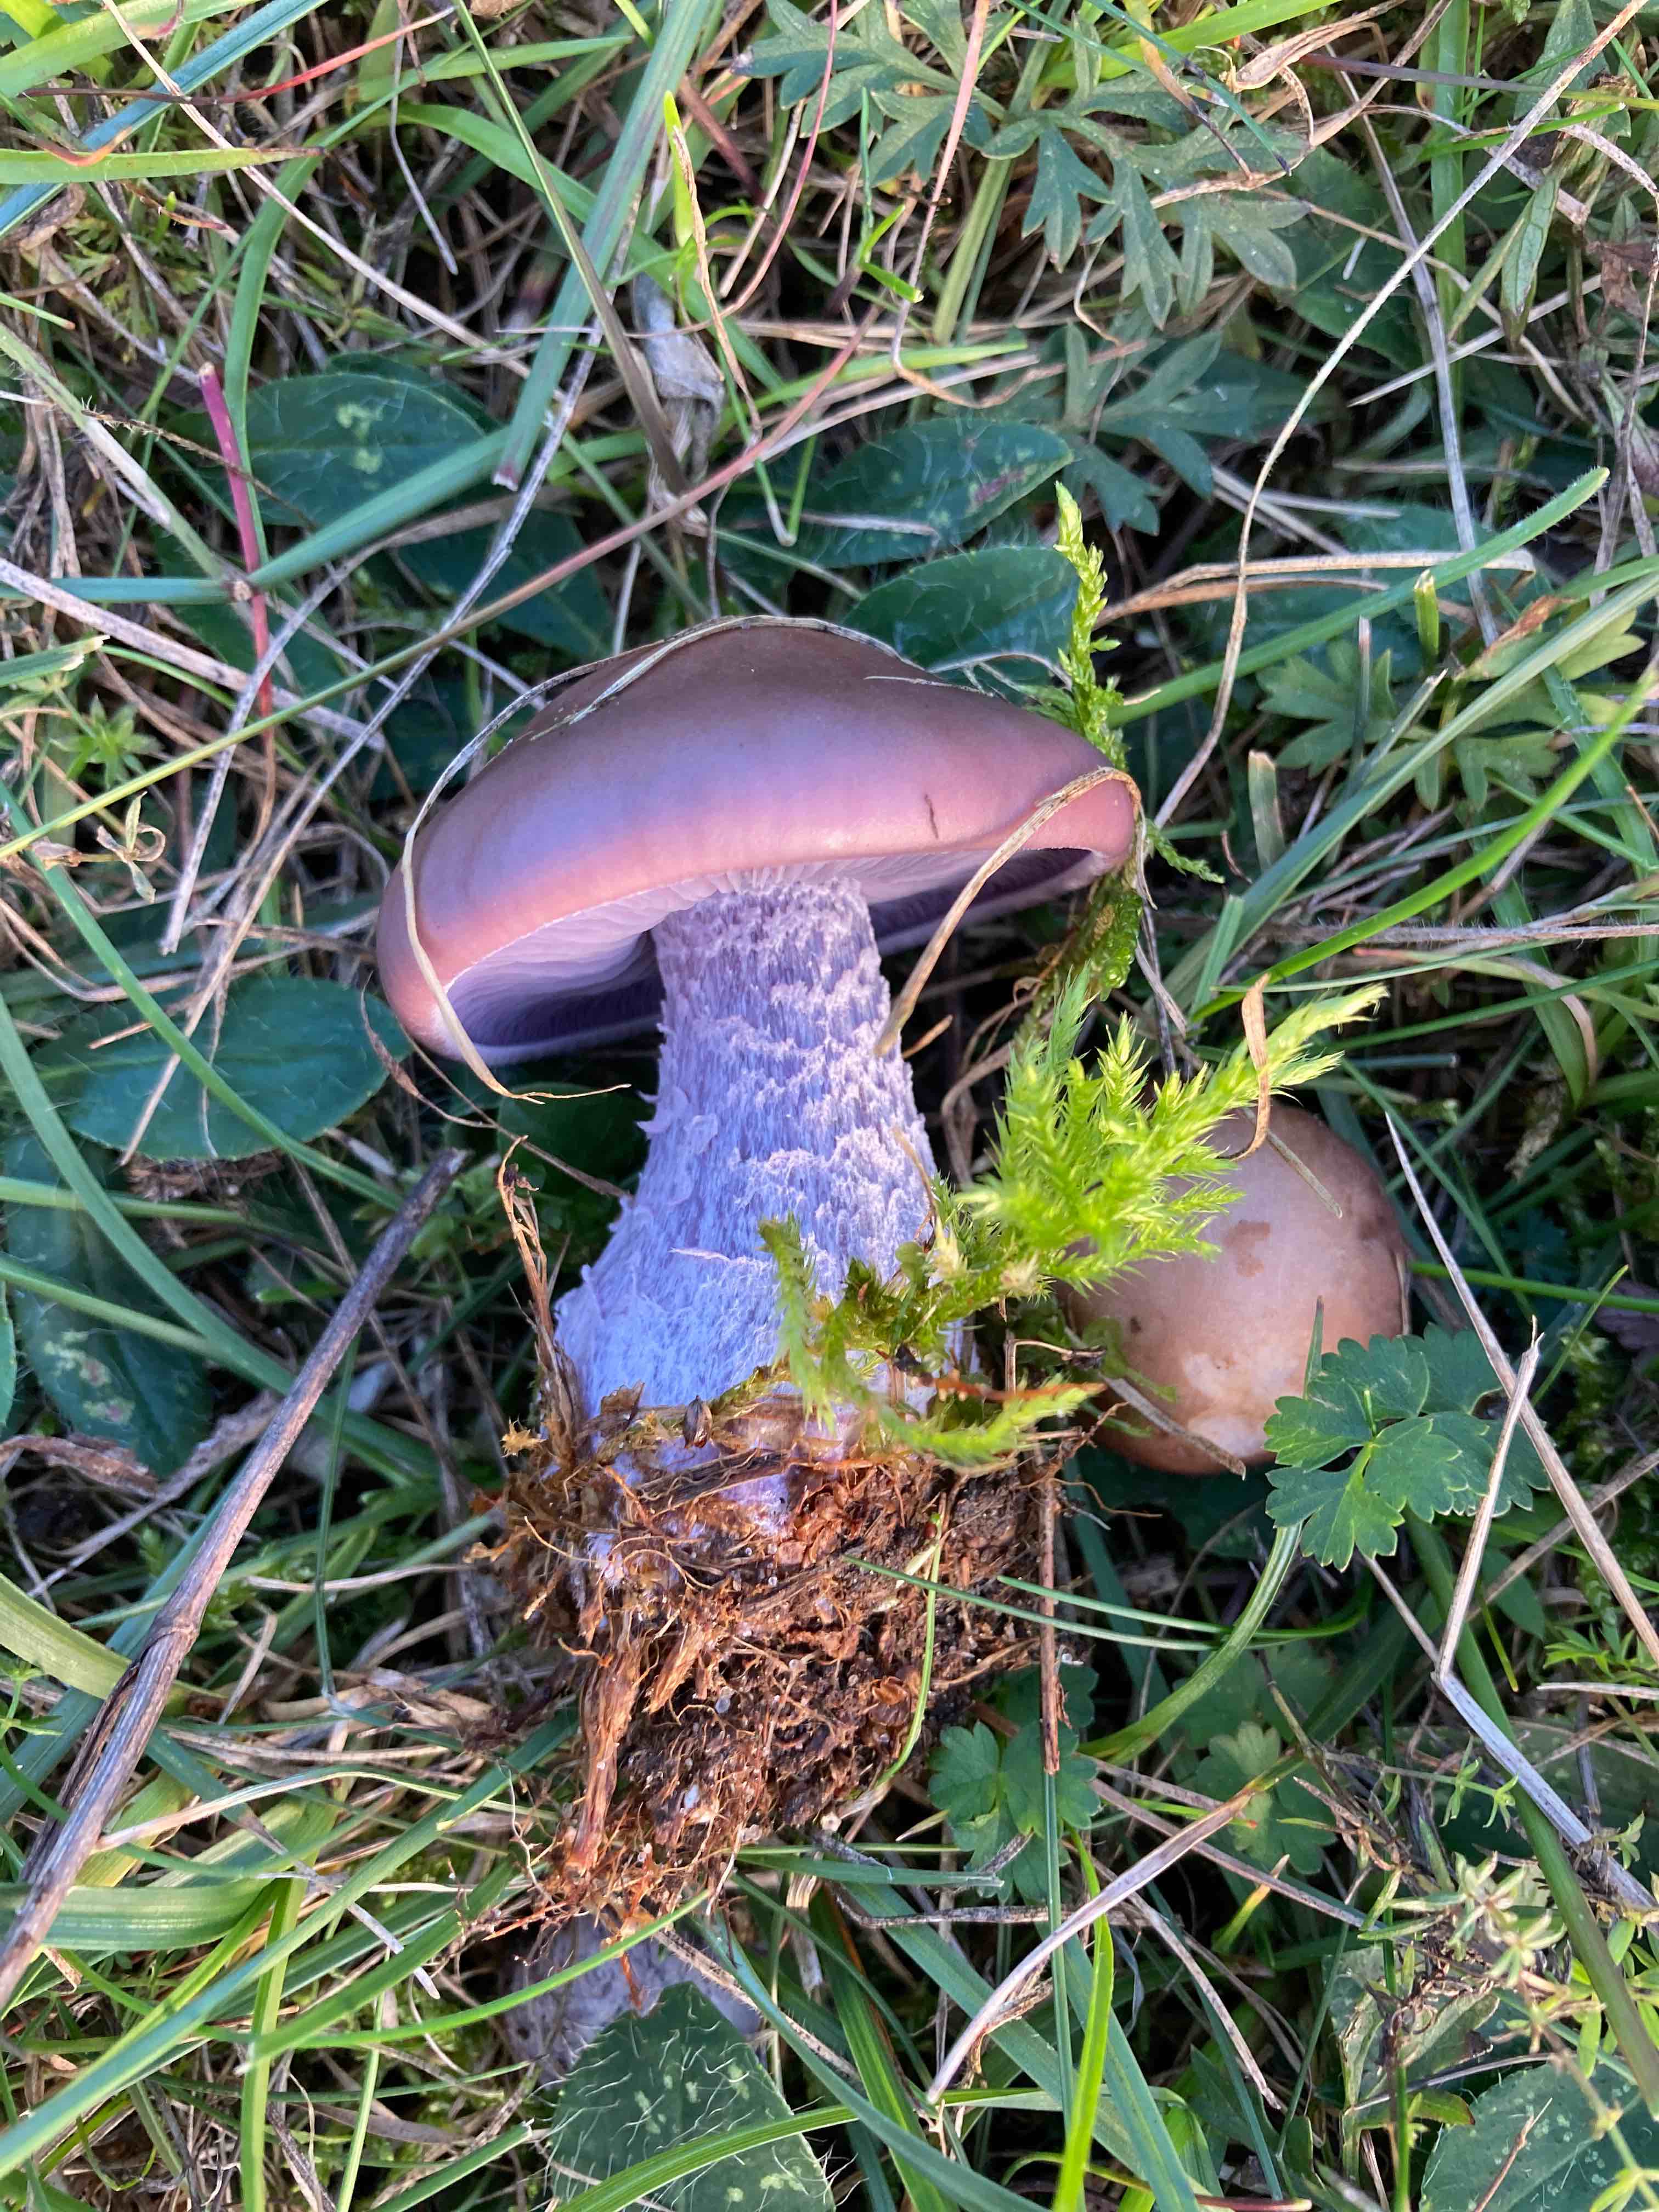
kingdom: Fungi
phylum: Basidiomycota
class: Agaricomycetes
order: Agaricales
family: Tricholomataceae
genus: Lepista
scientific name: Lepista nuda
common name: violet hekseringshat
